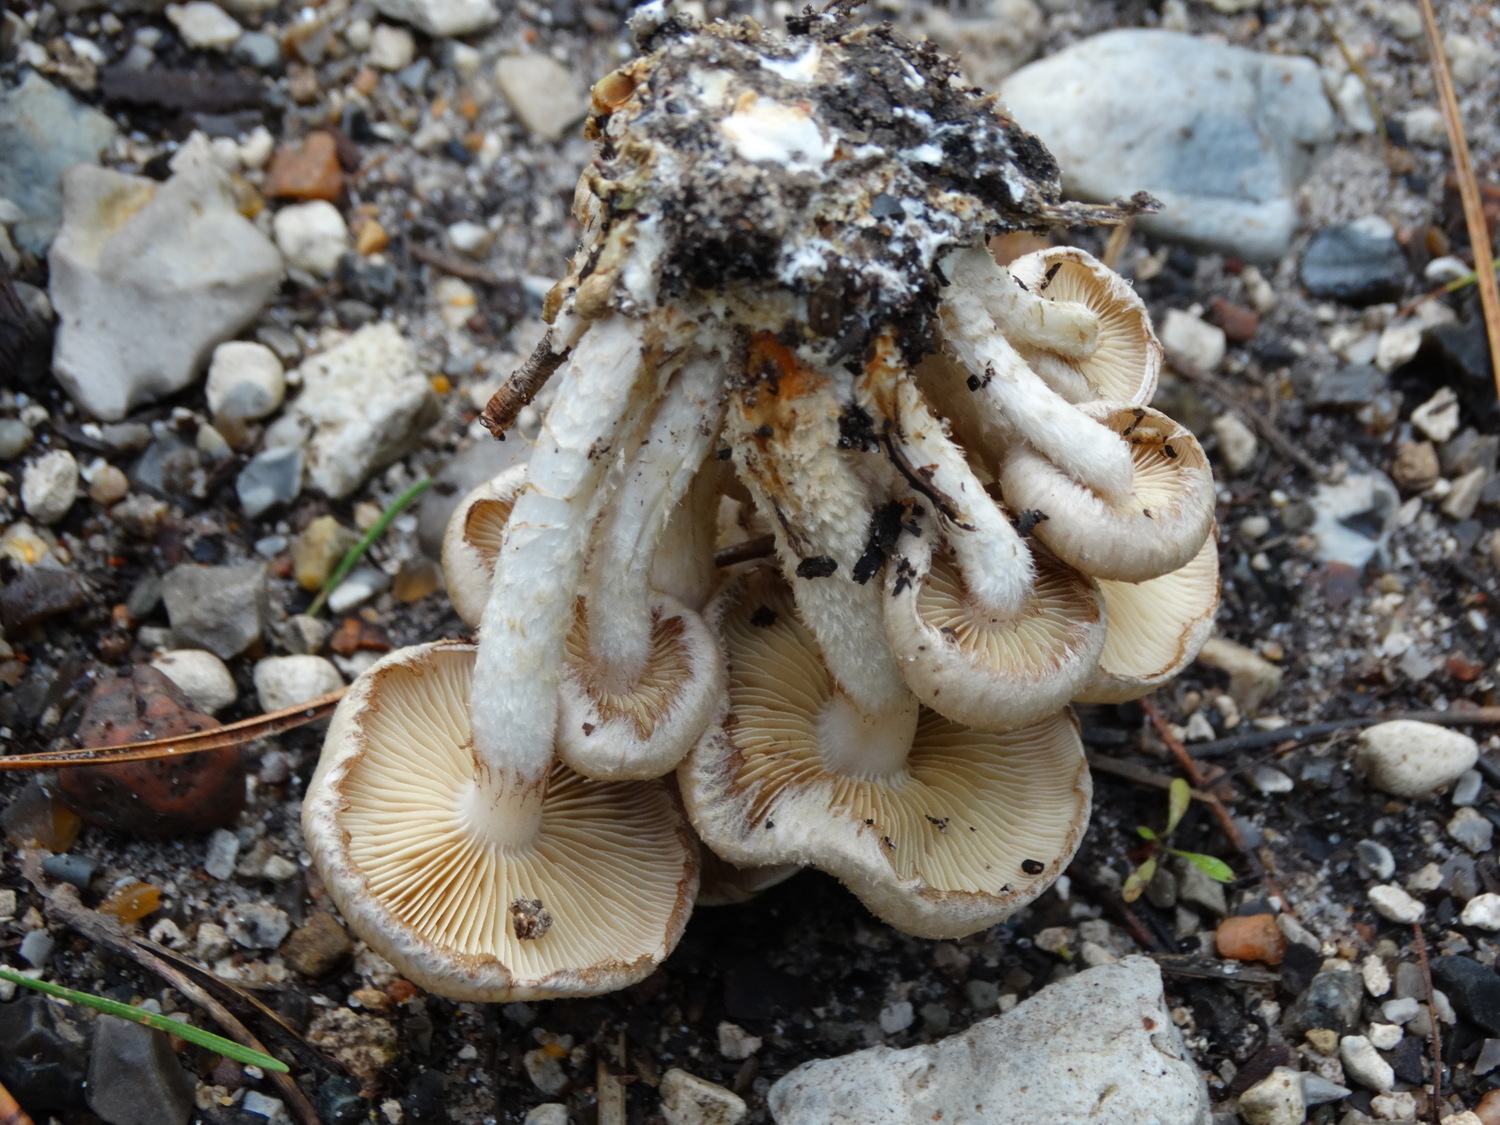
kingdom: Fungi
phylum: Basidiomycota
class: Agaricomycetes
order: Agaricales
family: Strophariaceae
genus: Pholiota
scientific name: Pholiota gummosa
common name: grøngul skælhat
